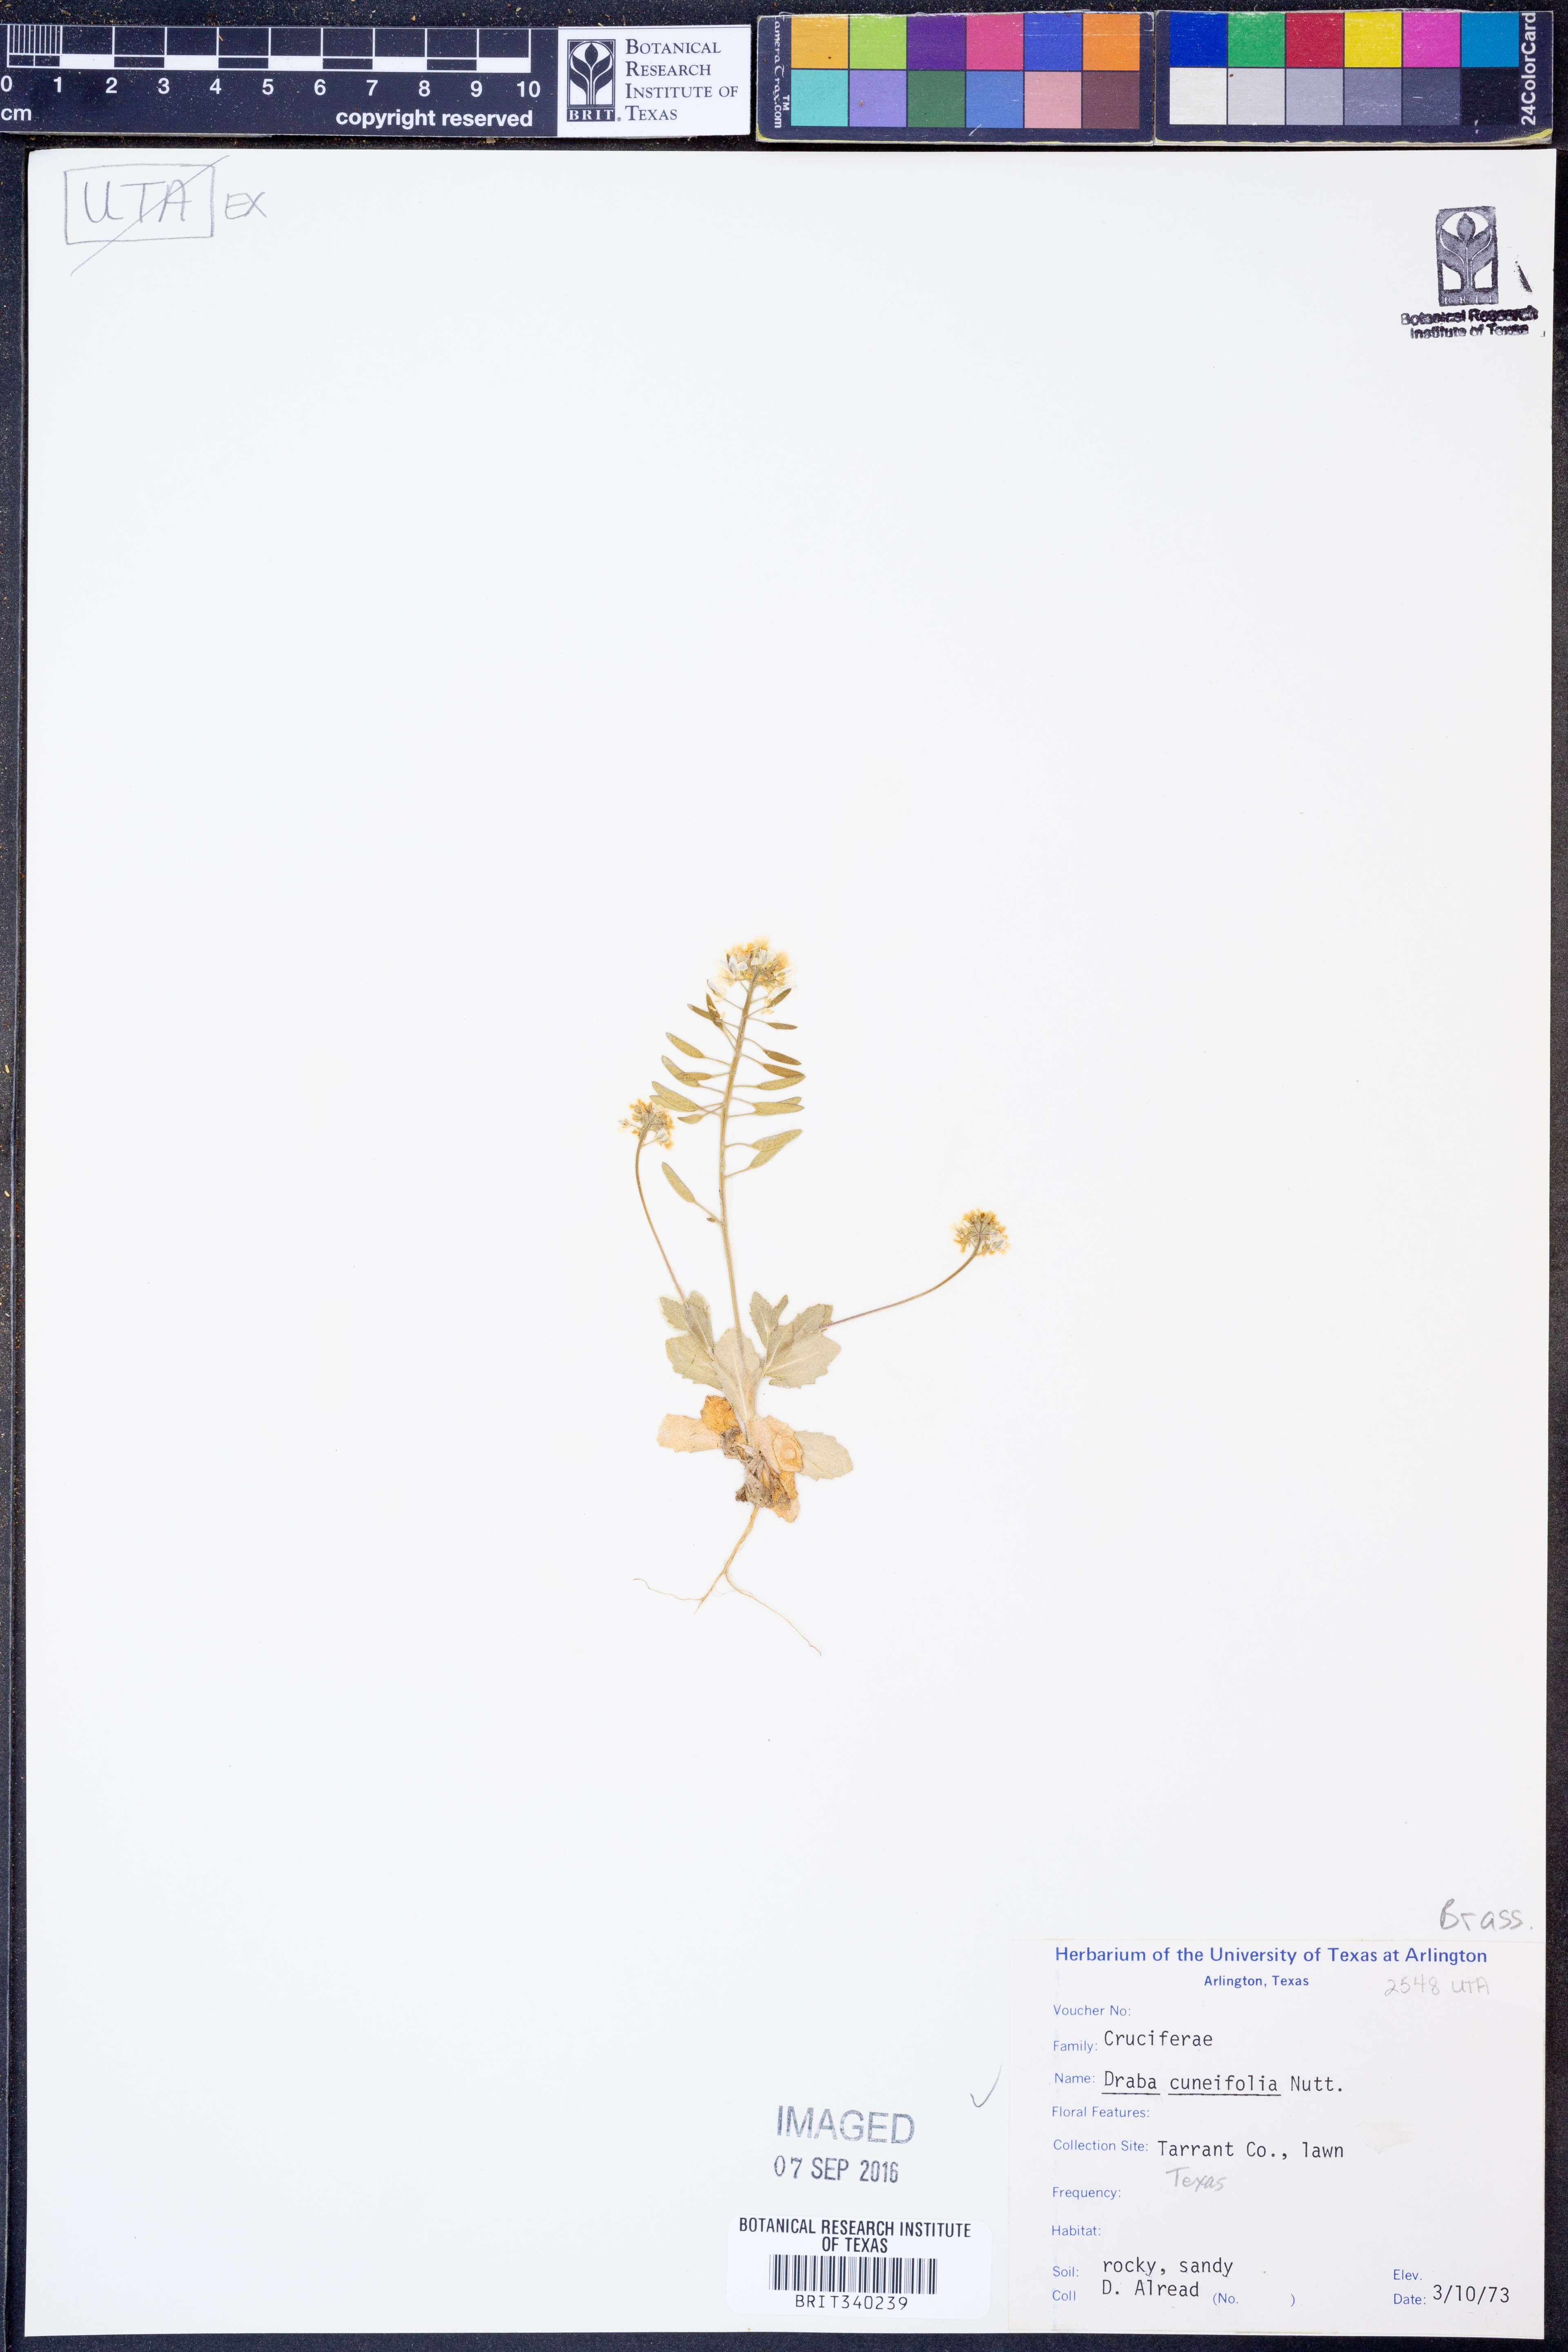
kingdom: Plantae
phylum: Tracheophyta
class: Magnoliopsida
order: Brassicales
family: Brassicaceae
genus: Tomostima
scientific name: Tomostima cuneifolia
